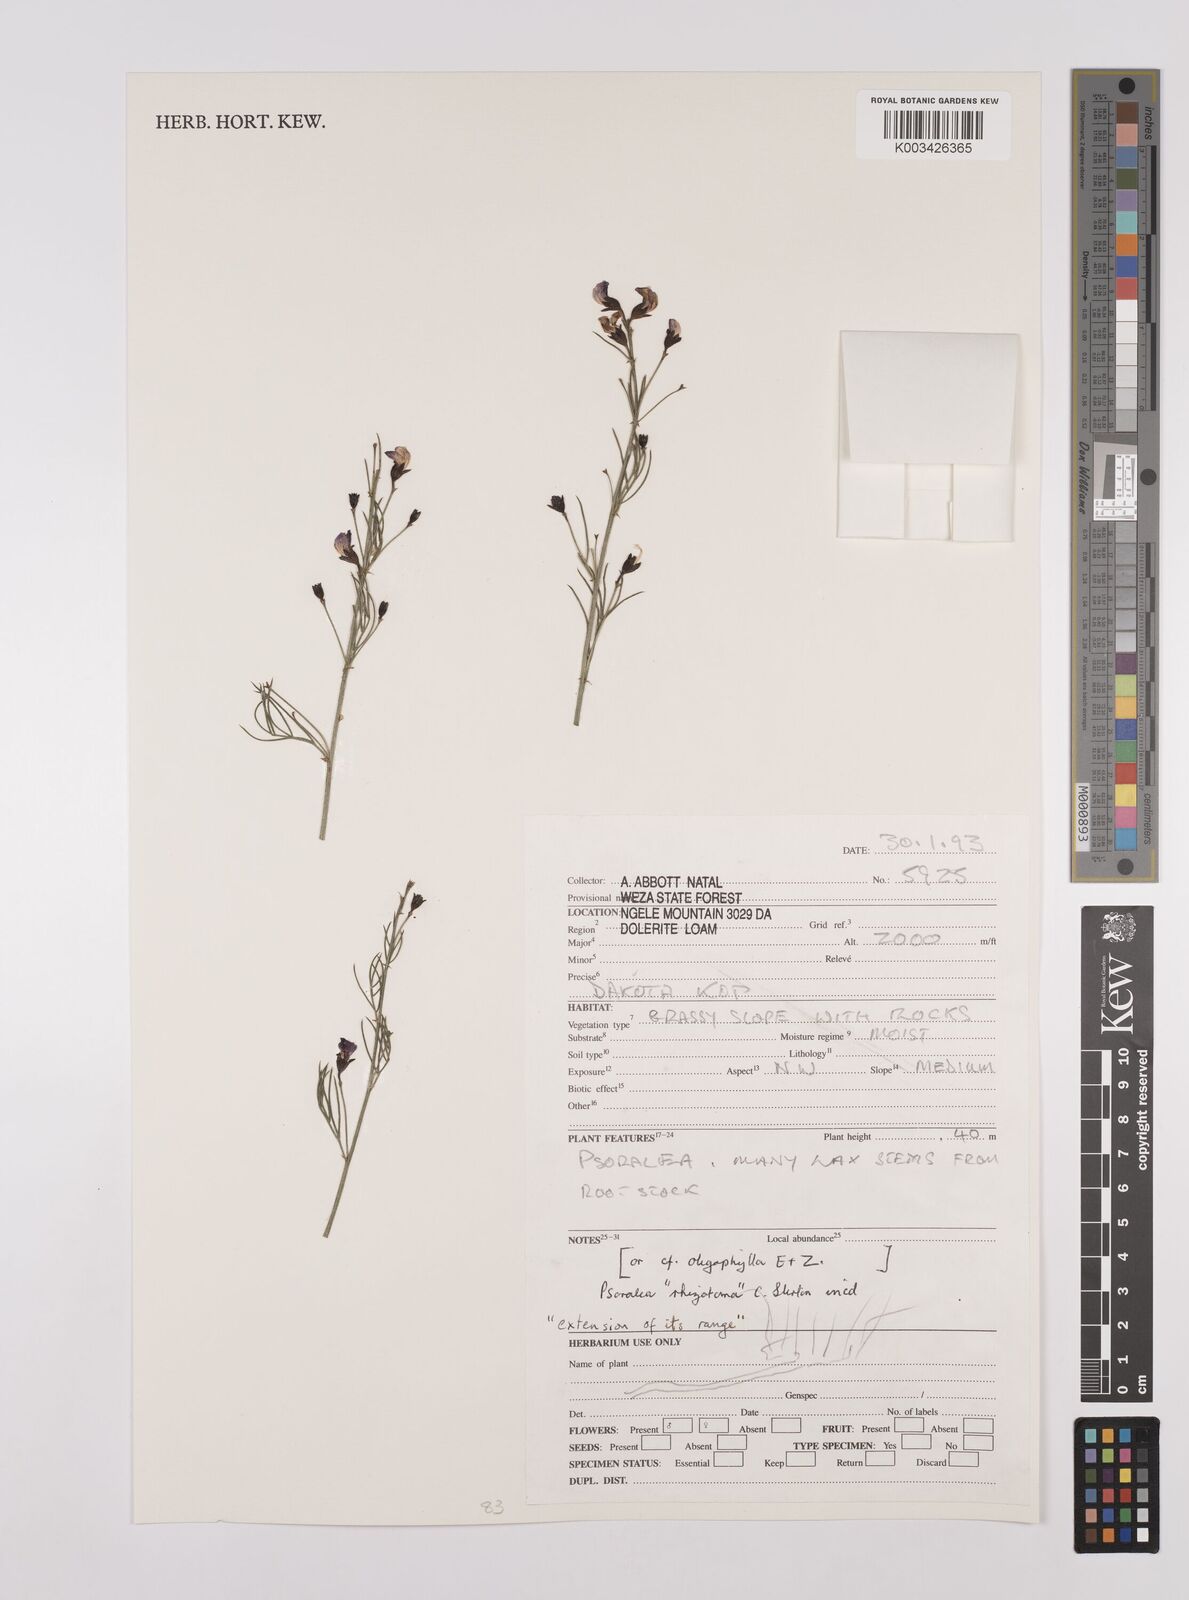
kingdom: Plantae
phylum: Tracheophyta
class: Magnoliopsida
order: Fabales
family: Fabaceae
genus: Psoralea
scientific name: Psoralea rhizotoma
